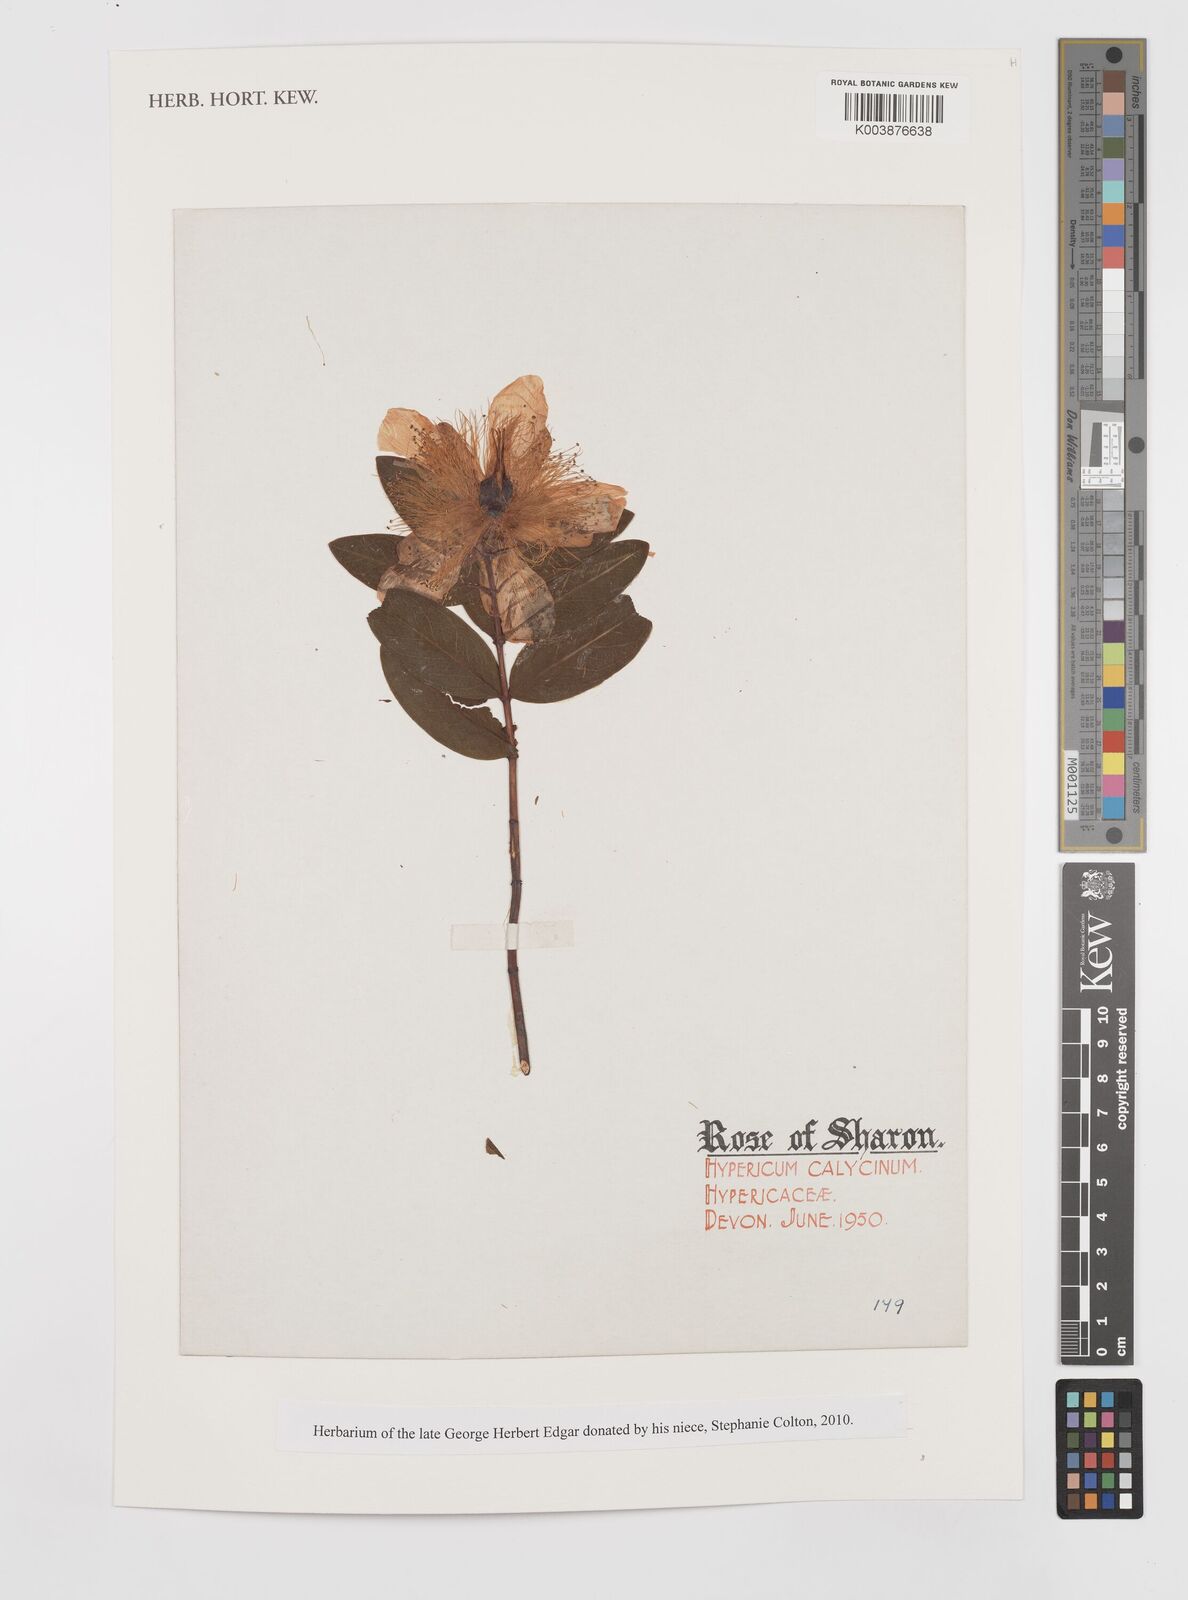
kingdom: Plantae
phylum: Tracheophyta
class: Magnoliopsida
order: Malpighiales
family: Hypericaceae
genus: Hypericum
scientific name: Hypericum calycinum
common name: Rose-of-sharon
